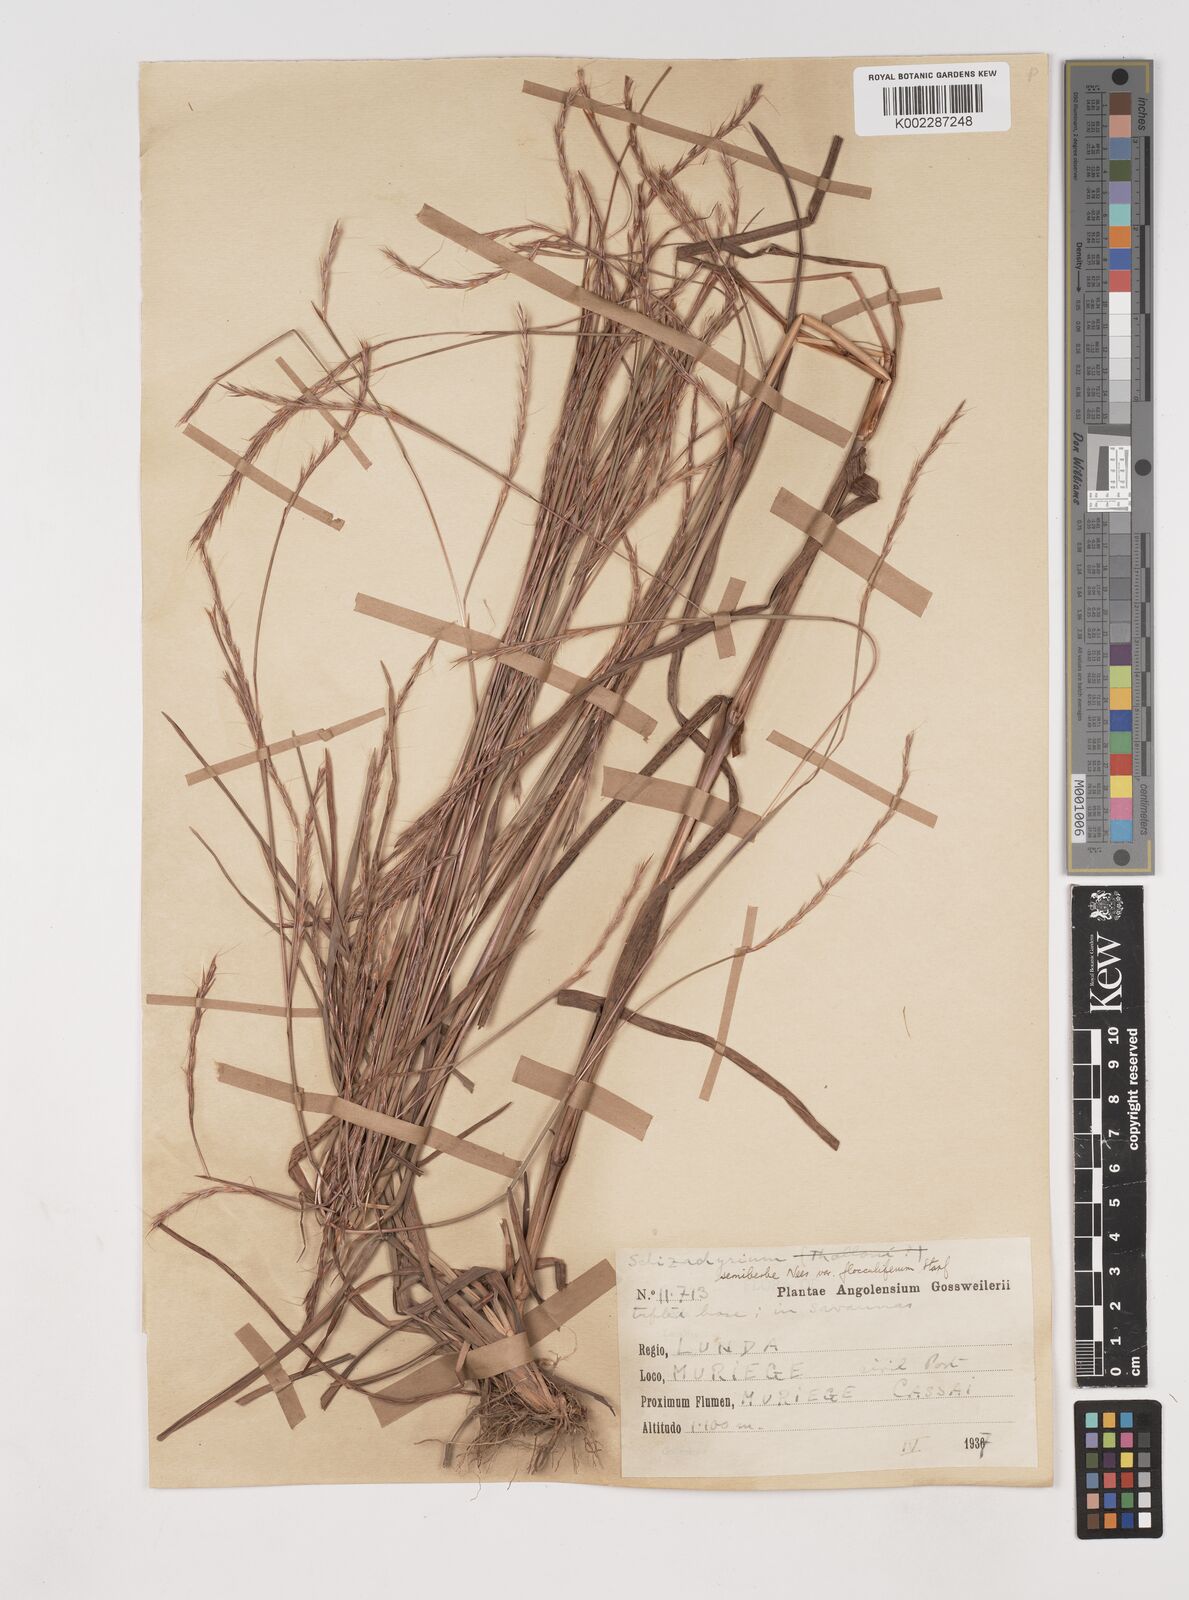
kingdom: Plantae
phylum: Tracheophyta
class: Liliopsida
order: Poales
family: Poaceae
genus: Schizachyrium
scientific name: Schizachyrium sanguineum
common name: Crimson bluestem
